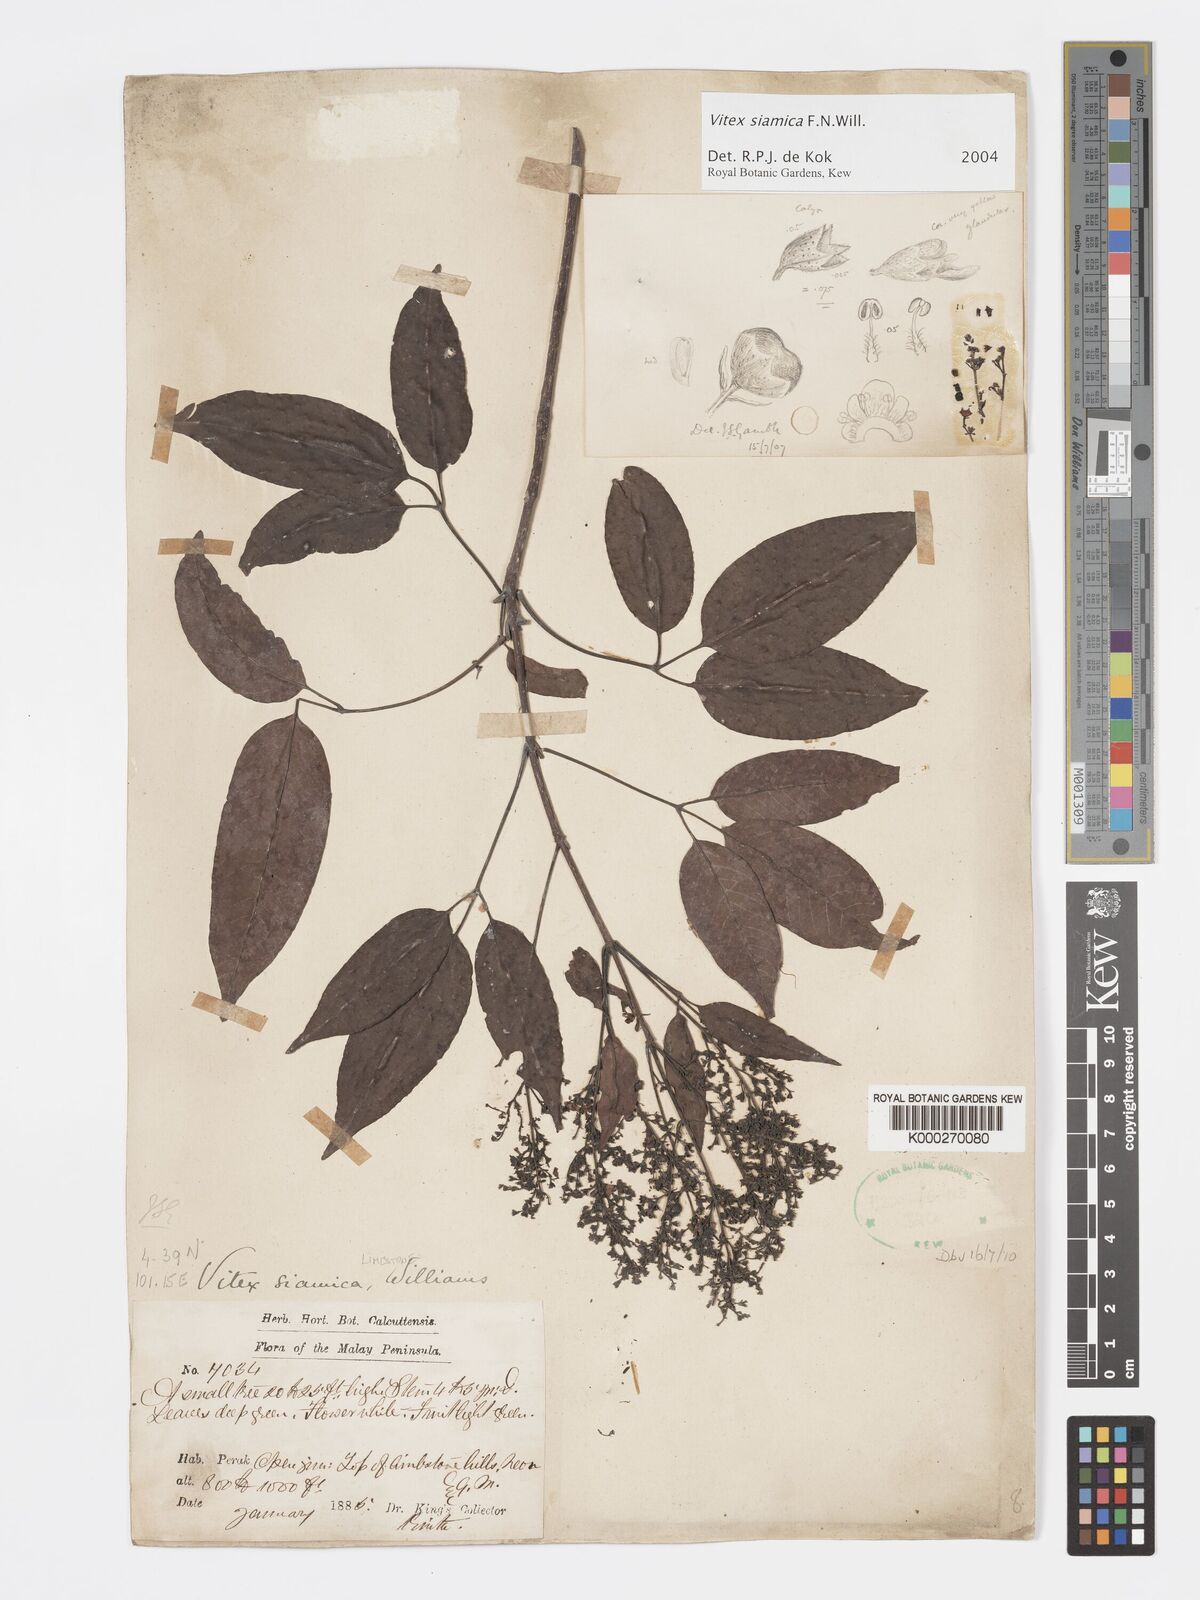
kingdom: Plantae
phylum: Tracheophyta
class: Magnoliopsida
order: Lamiales
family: Lamiaceae
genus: Vitex
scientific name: Vitex siamica
